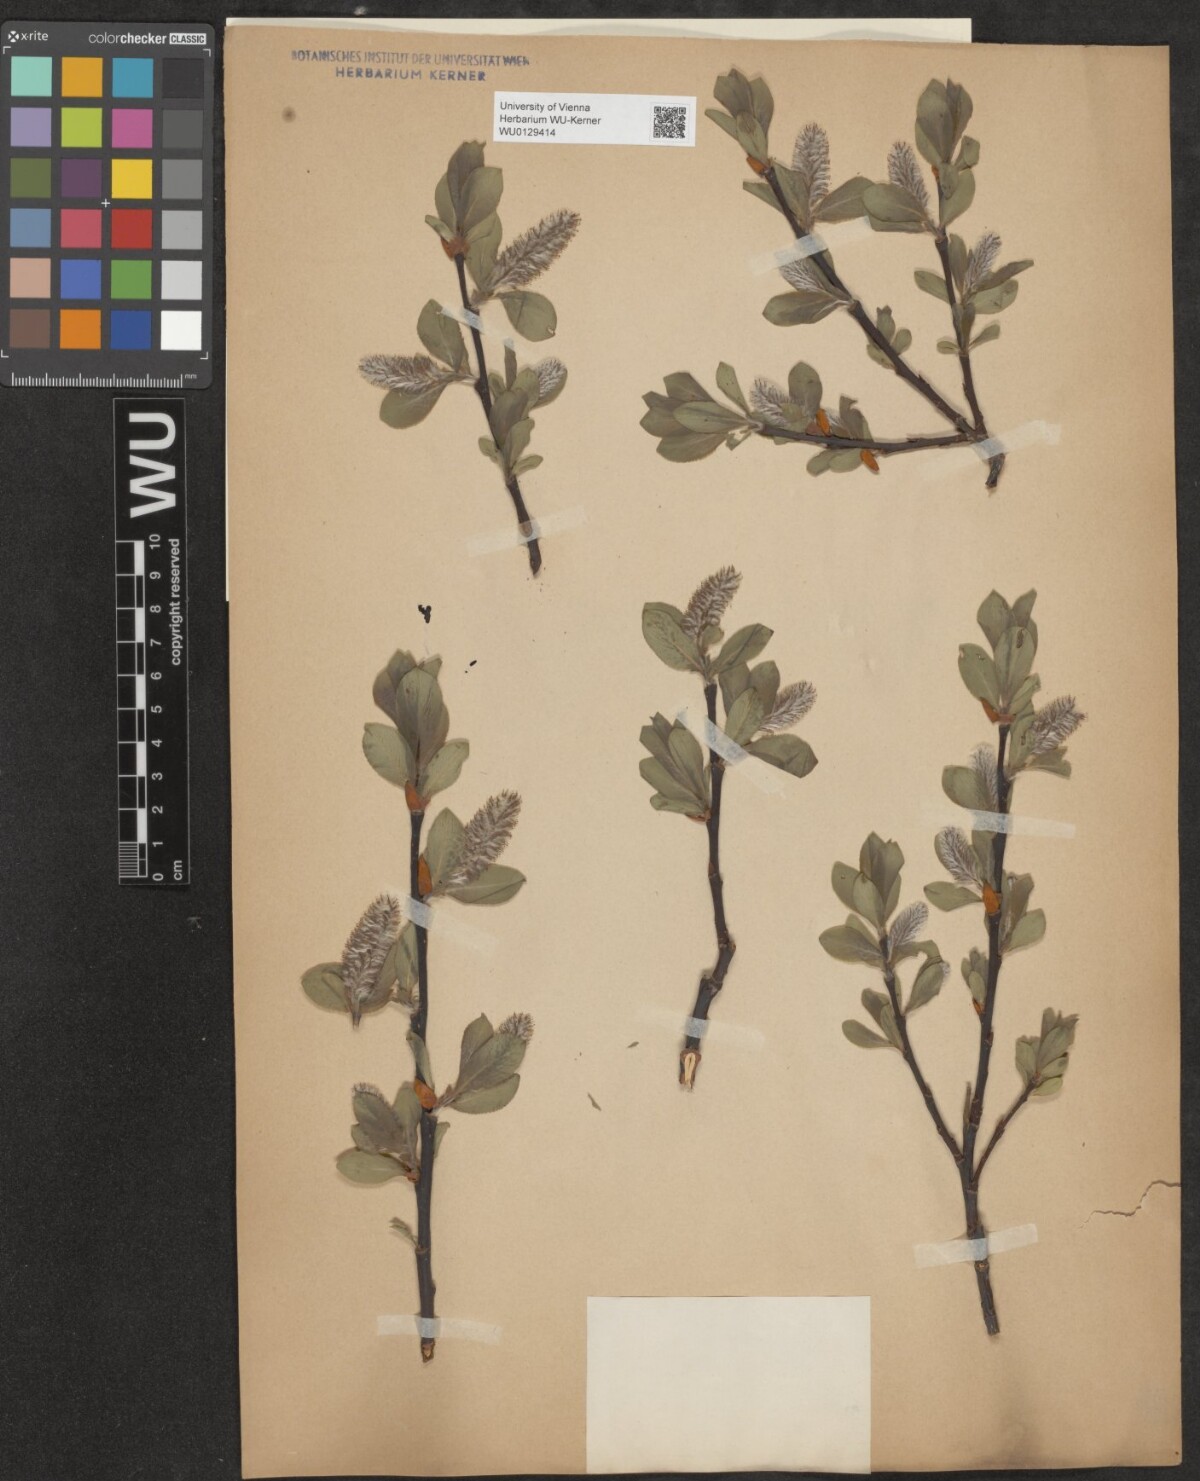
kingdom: Plantae
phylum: Tracheophyta
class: Magnoliopsida
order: Malpighiales
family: Salicaceae
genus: Salix
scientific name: Salix hastata
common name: Halberd willow
